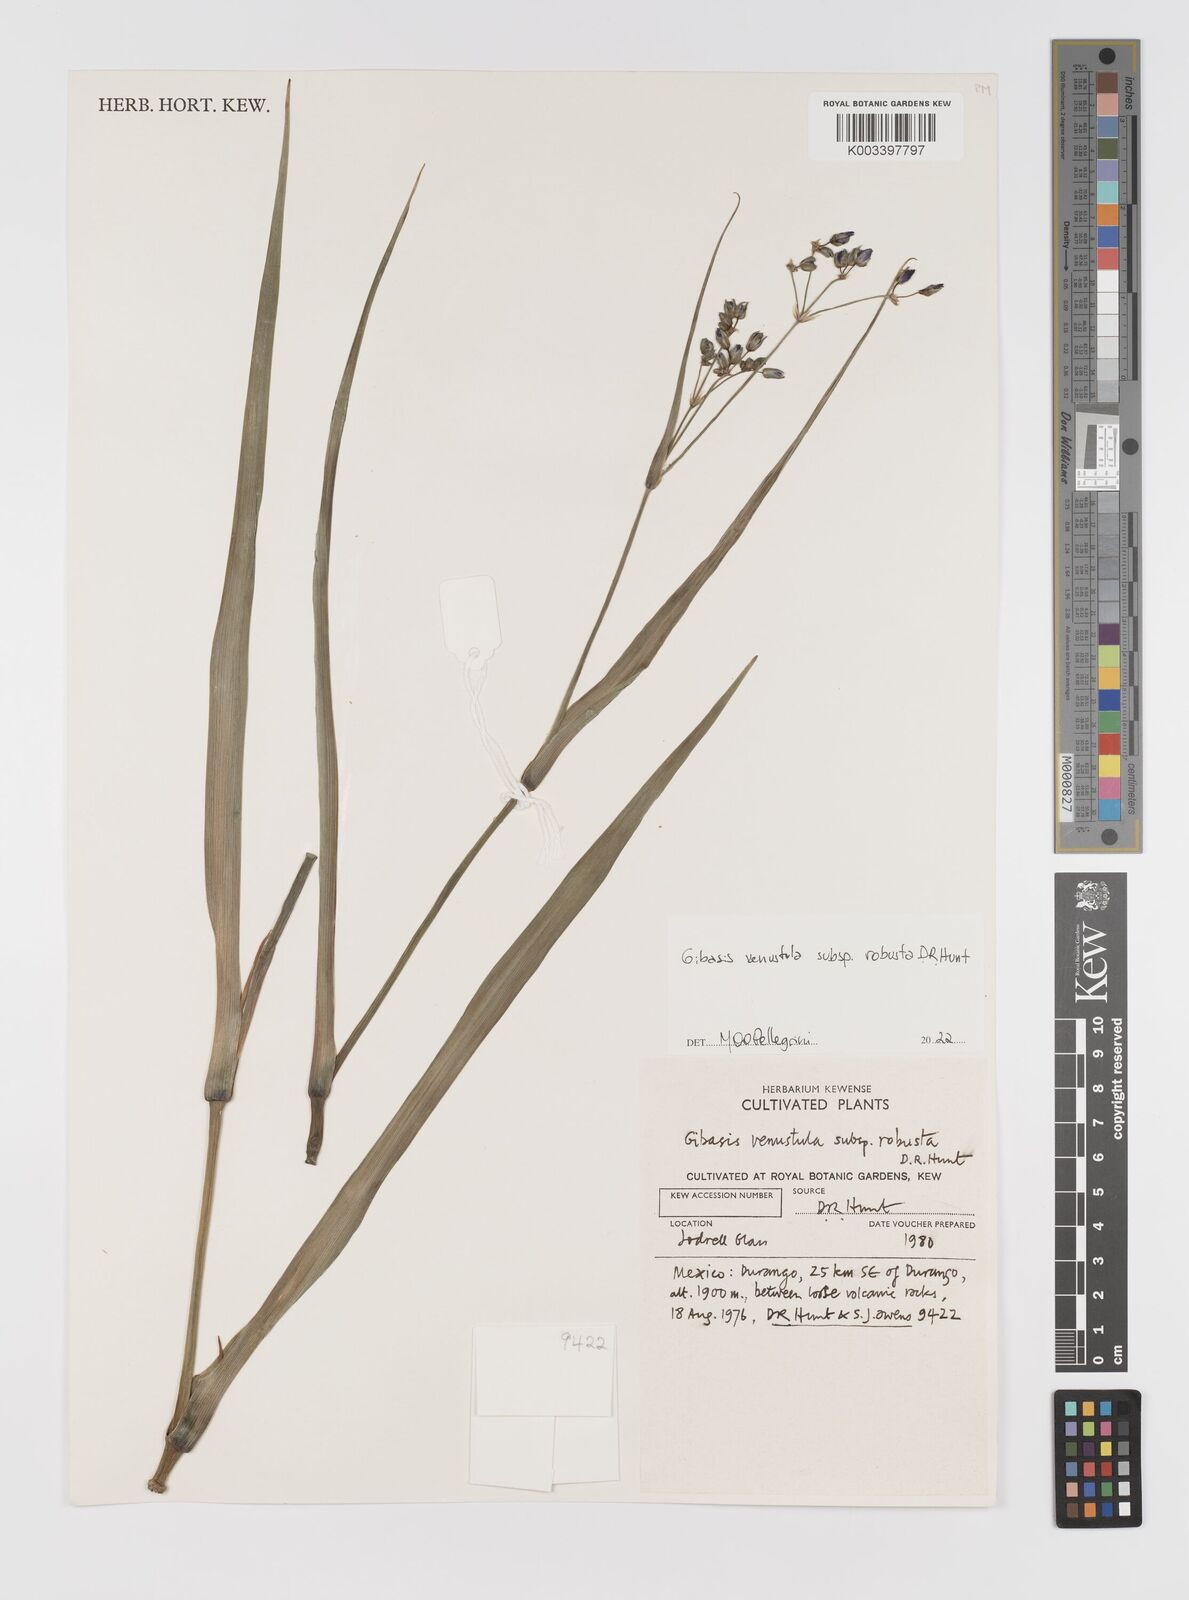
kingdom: Plantae
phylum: Tracheophyta
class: Liliopsida
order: Commelinales
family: Commelinaceae
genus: Gibasis
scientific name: Gibasis venustula
